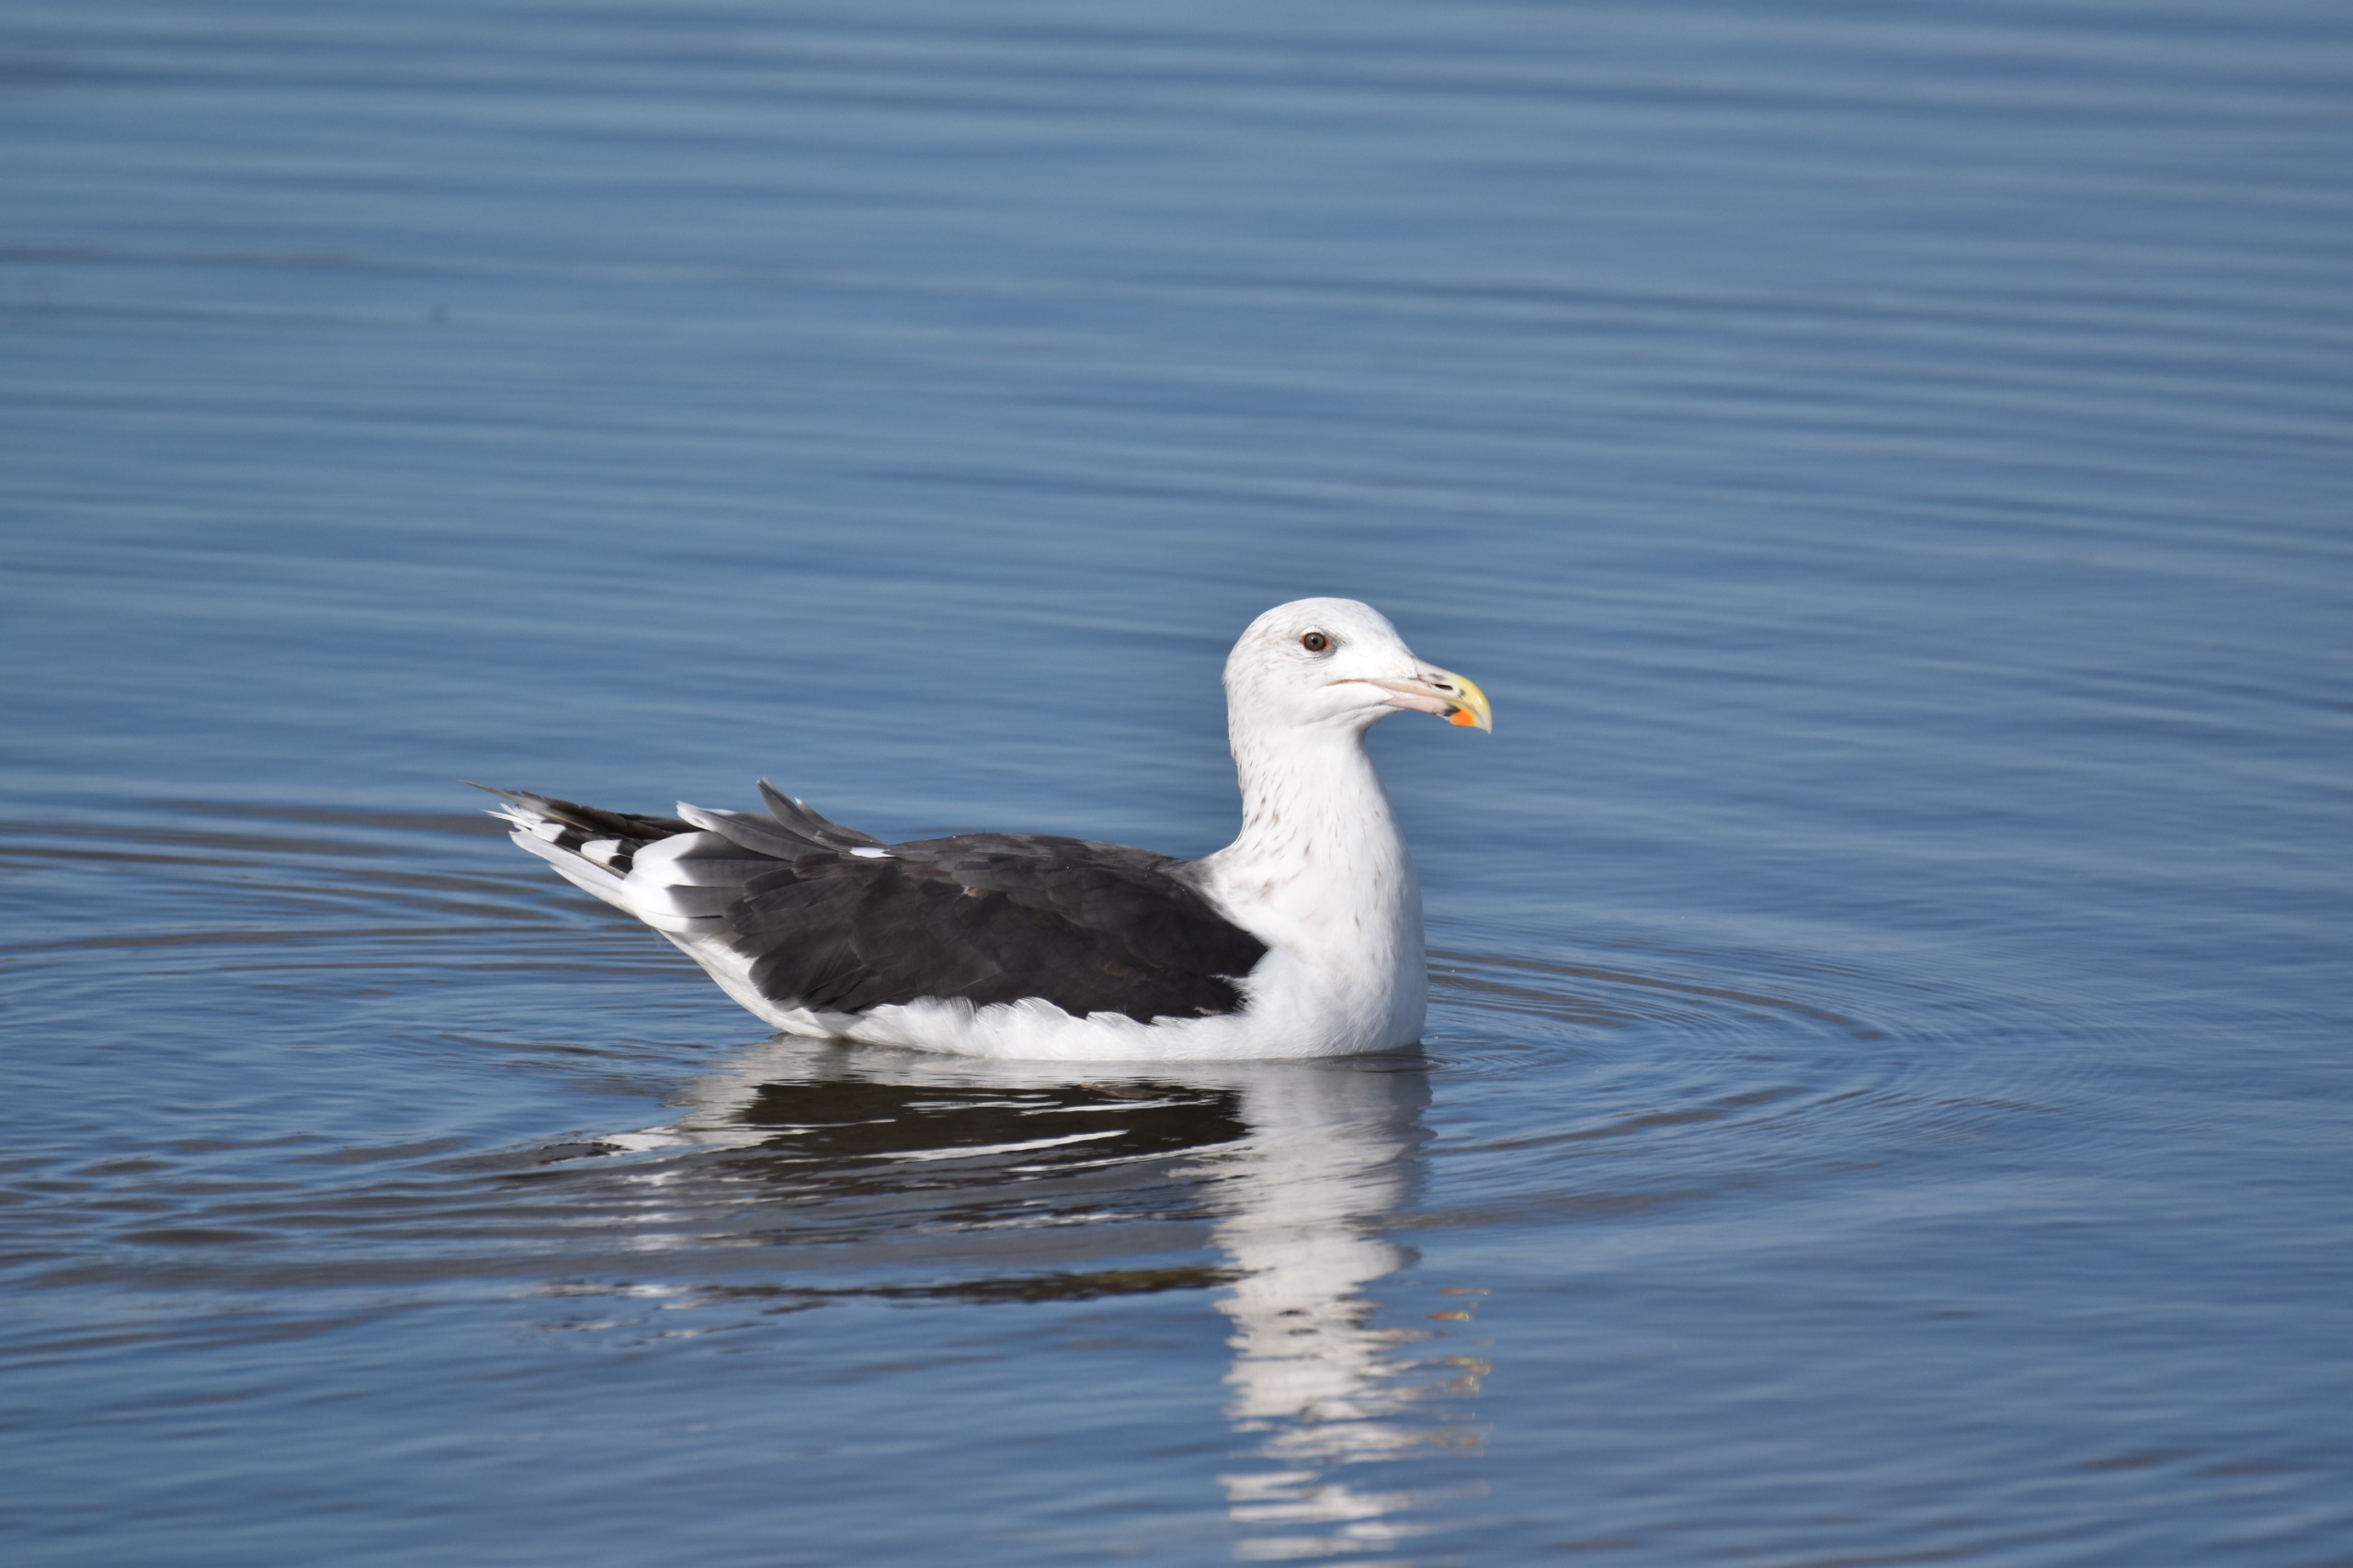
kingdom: Animalia
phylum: Chordata
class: Aves
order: Charadriiformes
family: Laridae
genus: Larus
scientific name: Larus marinus
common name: Svartbag
